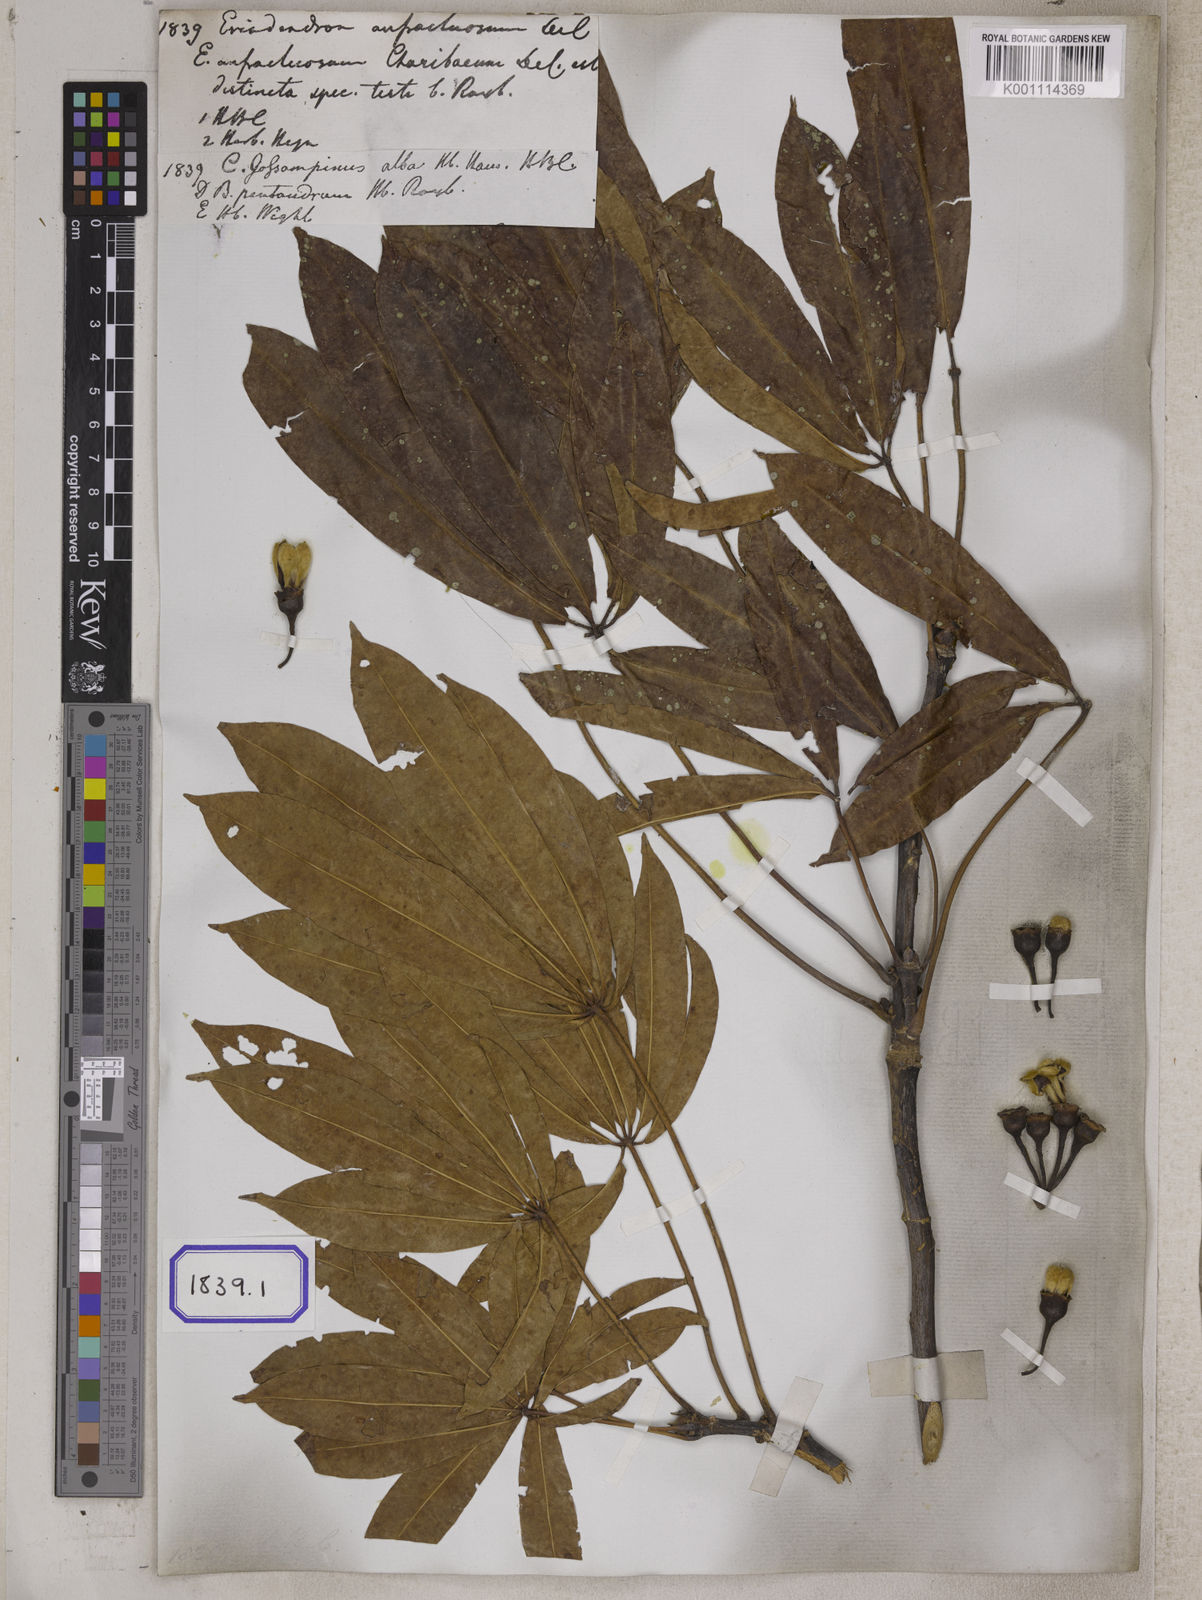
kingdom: Plantae
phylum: Tracheophyta
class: Magnoliopsida
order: Malvales
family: Malvaceae
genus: Ceiba
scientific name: Ceiba pentandra
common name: Kapok
